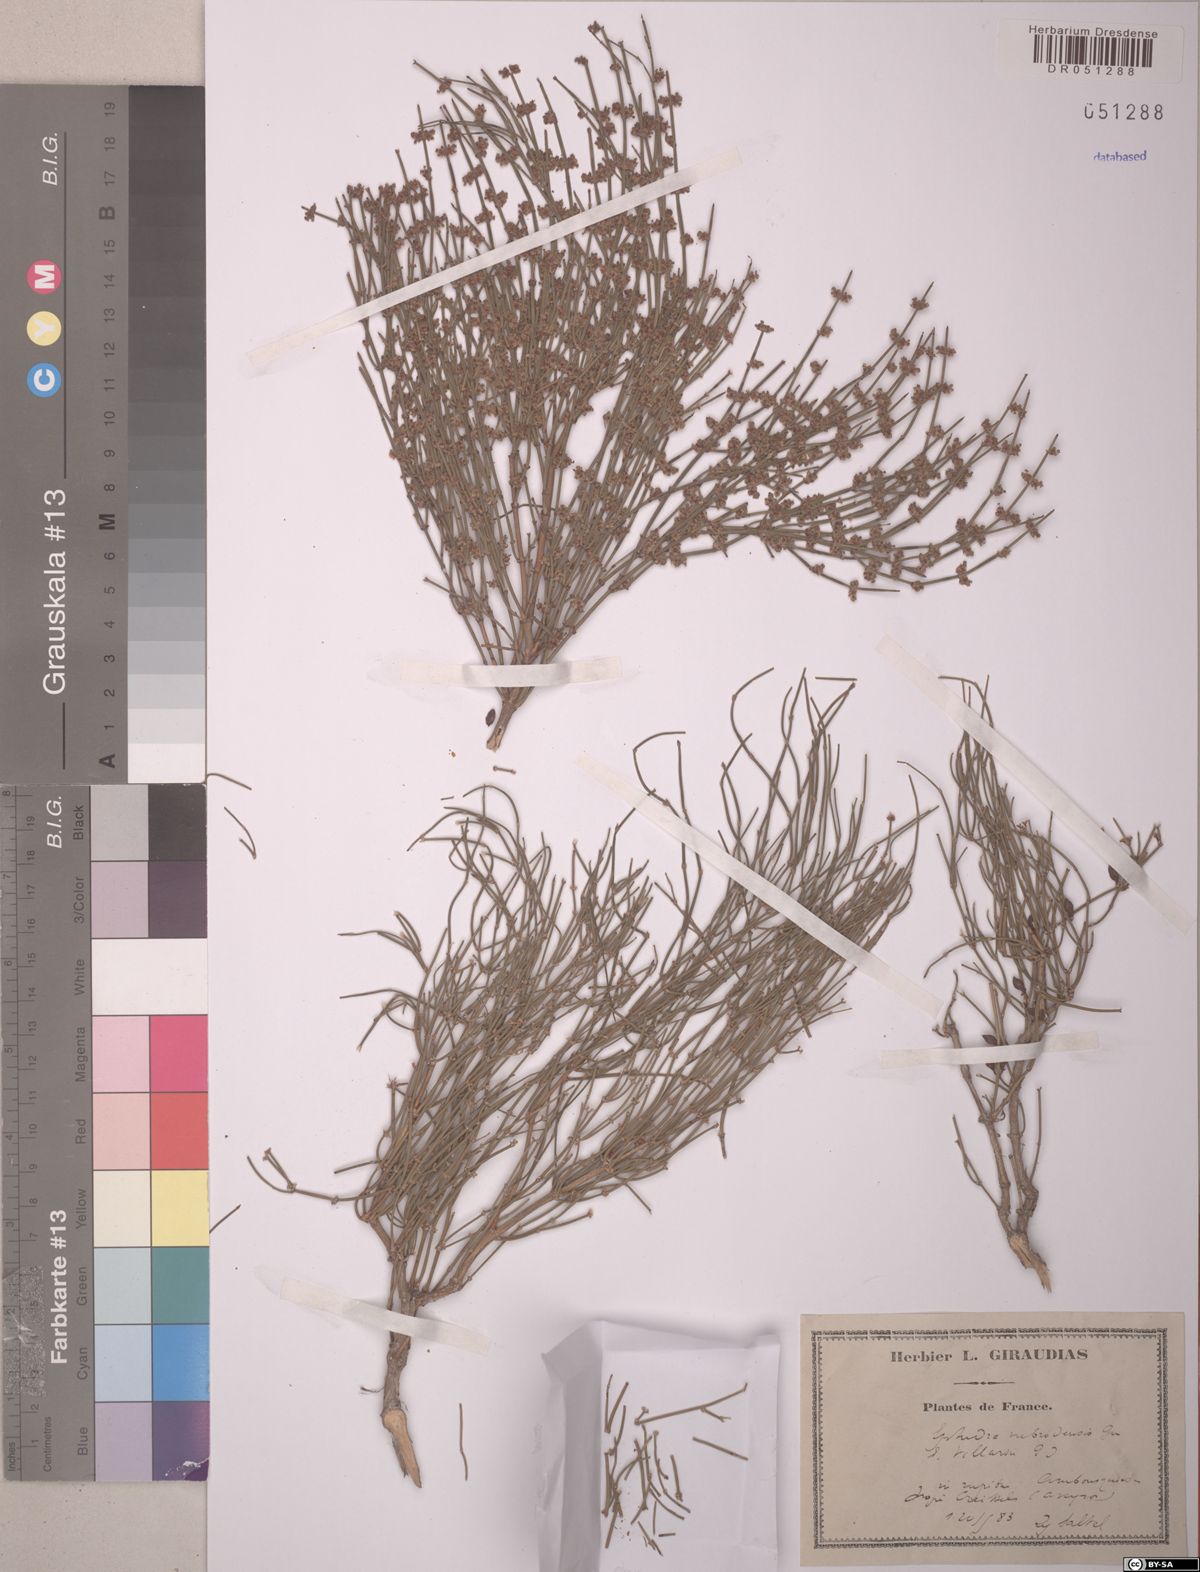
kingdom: Plantae
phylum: Tracheophyta
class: Gnetopsida
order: Ephedrales
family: Ephedraceae
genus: Ephedra
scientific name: Ephedra foeminea
